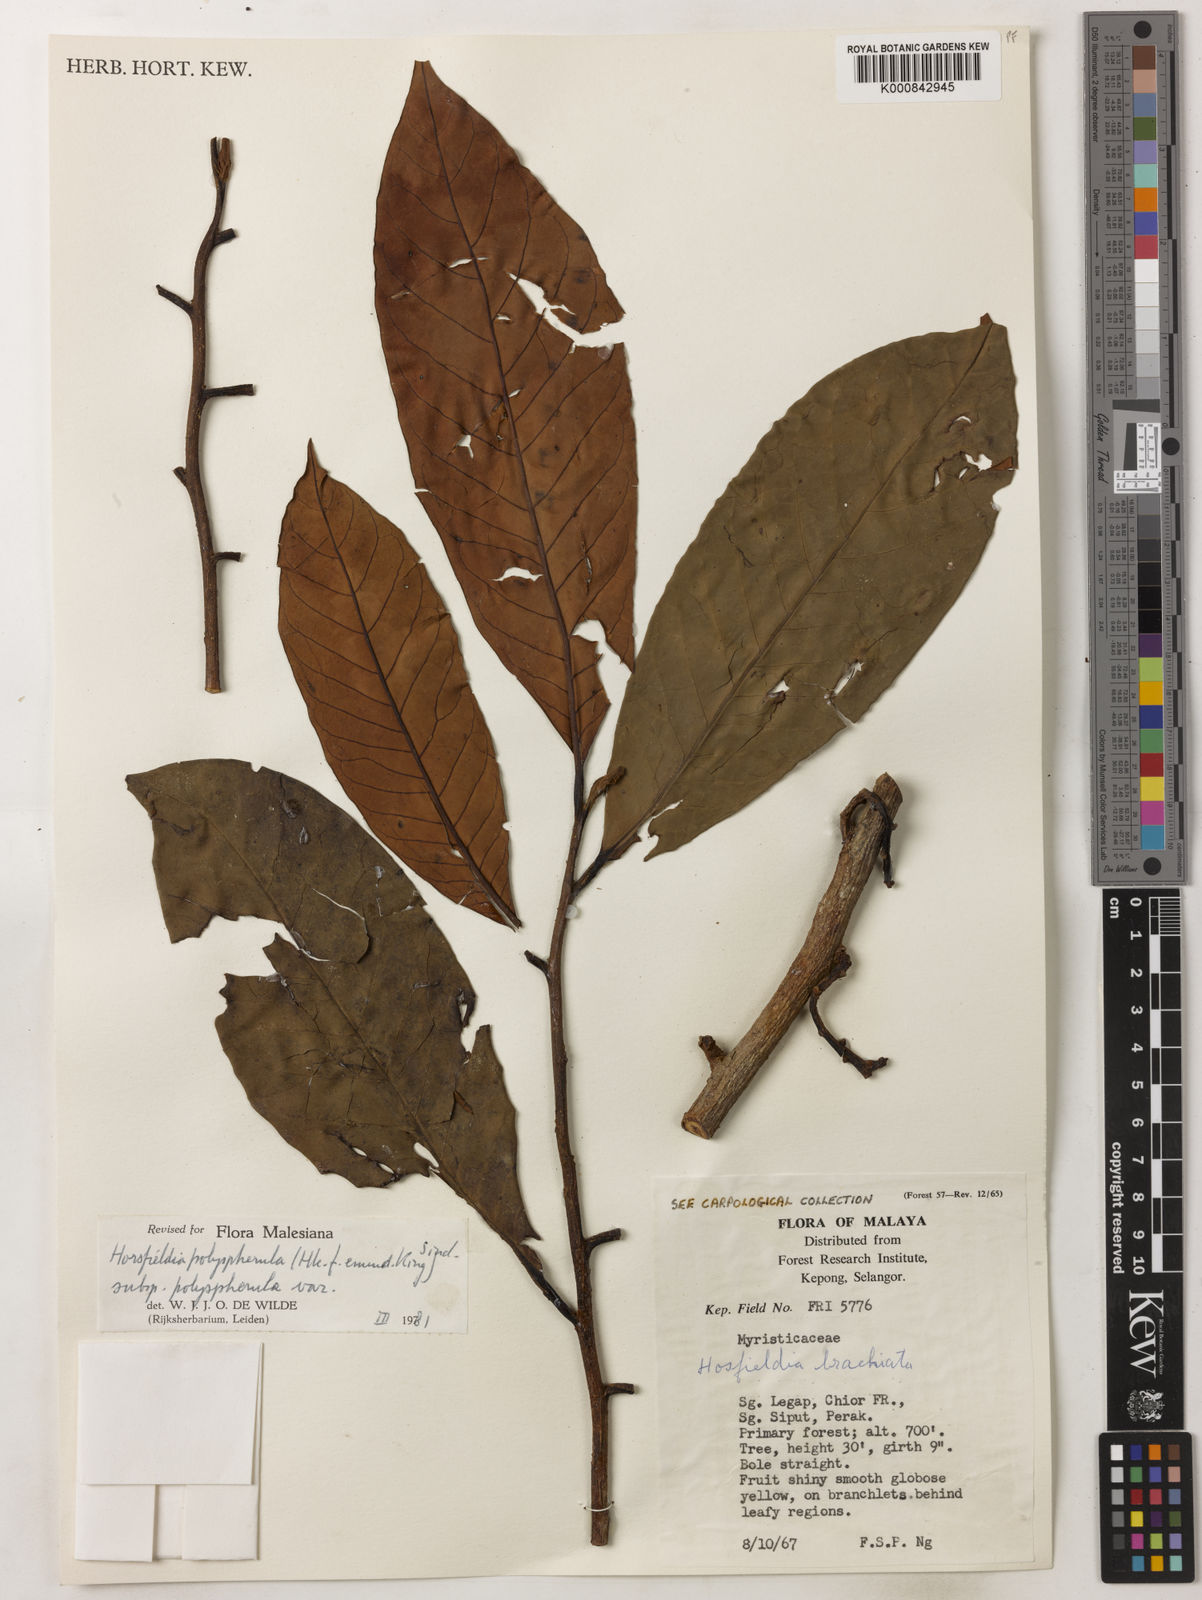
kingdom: Plantae
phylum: Tracheophyta
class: Magnoliopsida
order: Magnoliales
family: Myristicaceae
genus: Horsfieldia
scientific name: Horsfieldia
